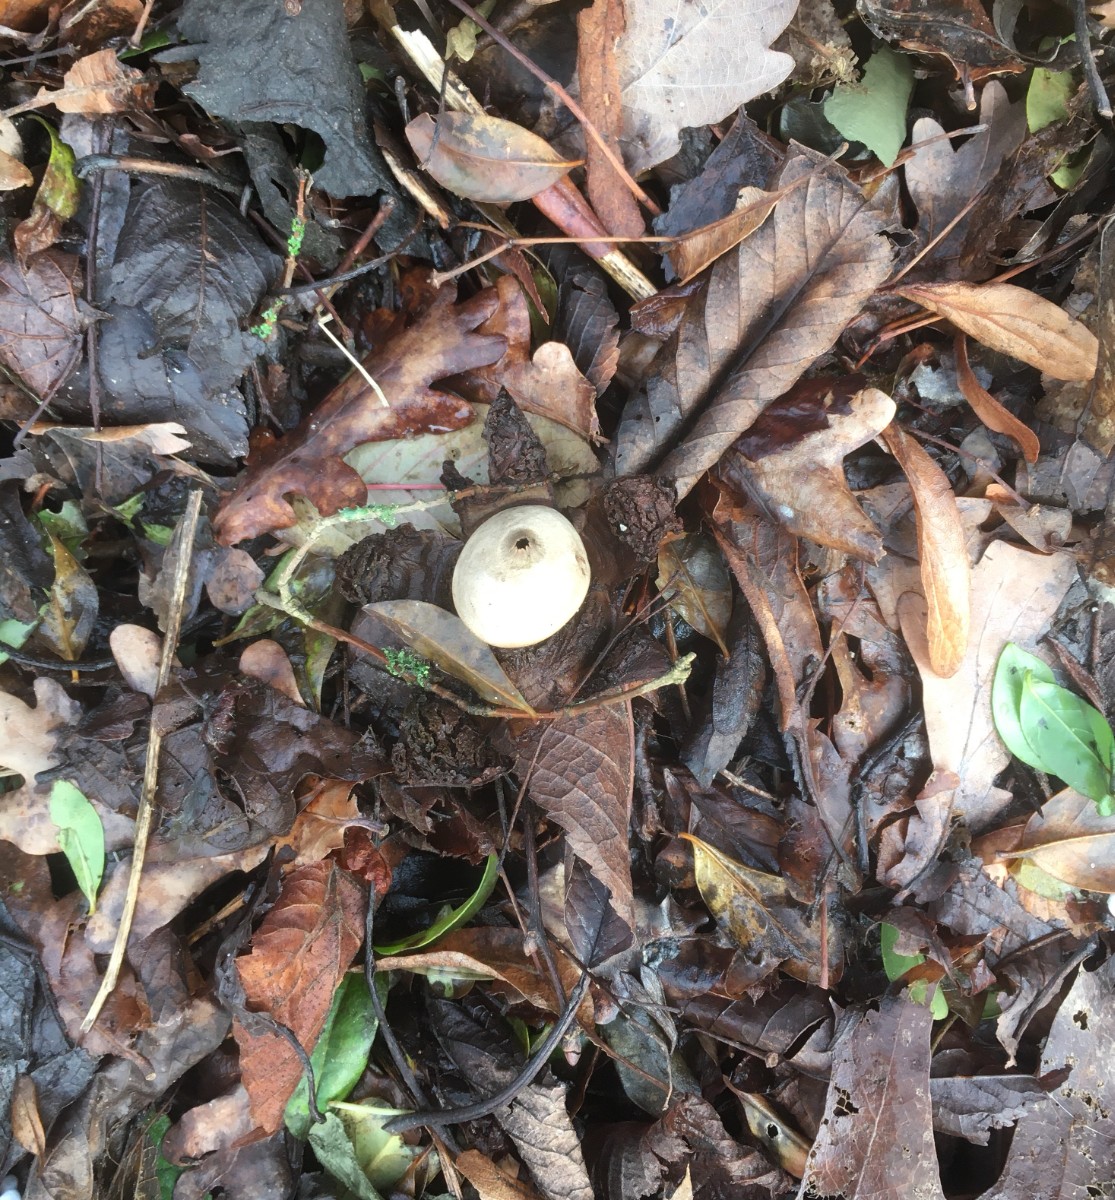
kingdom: Fungi
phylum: Basidiomycota
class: Agaricomycetes
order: Geastrales
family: Geastraceae
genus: Geastrum
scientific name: Geastrum michelianum
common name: kødet stjernebold
